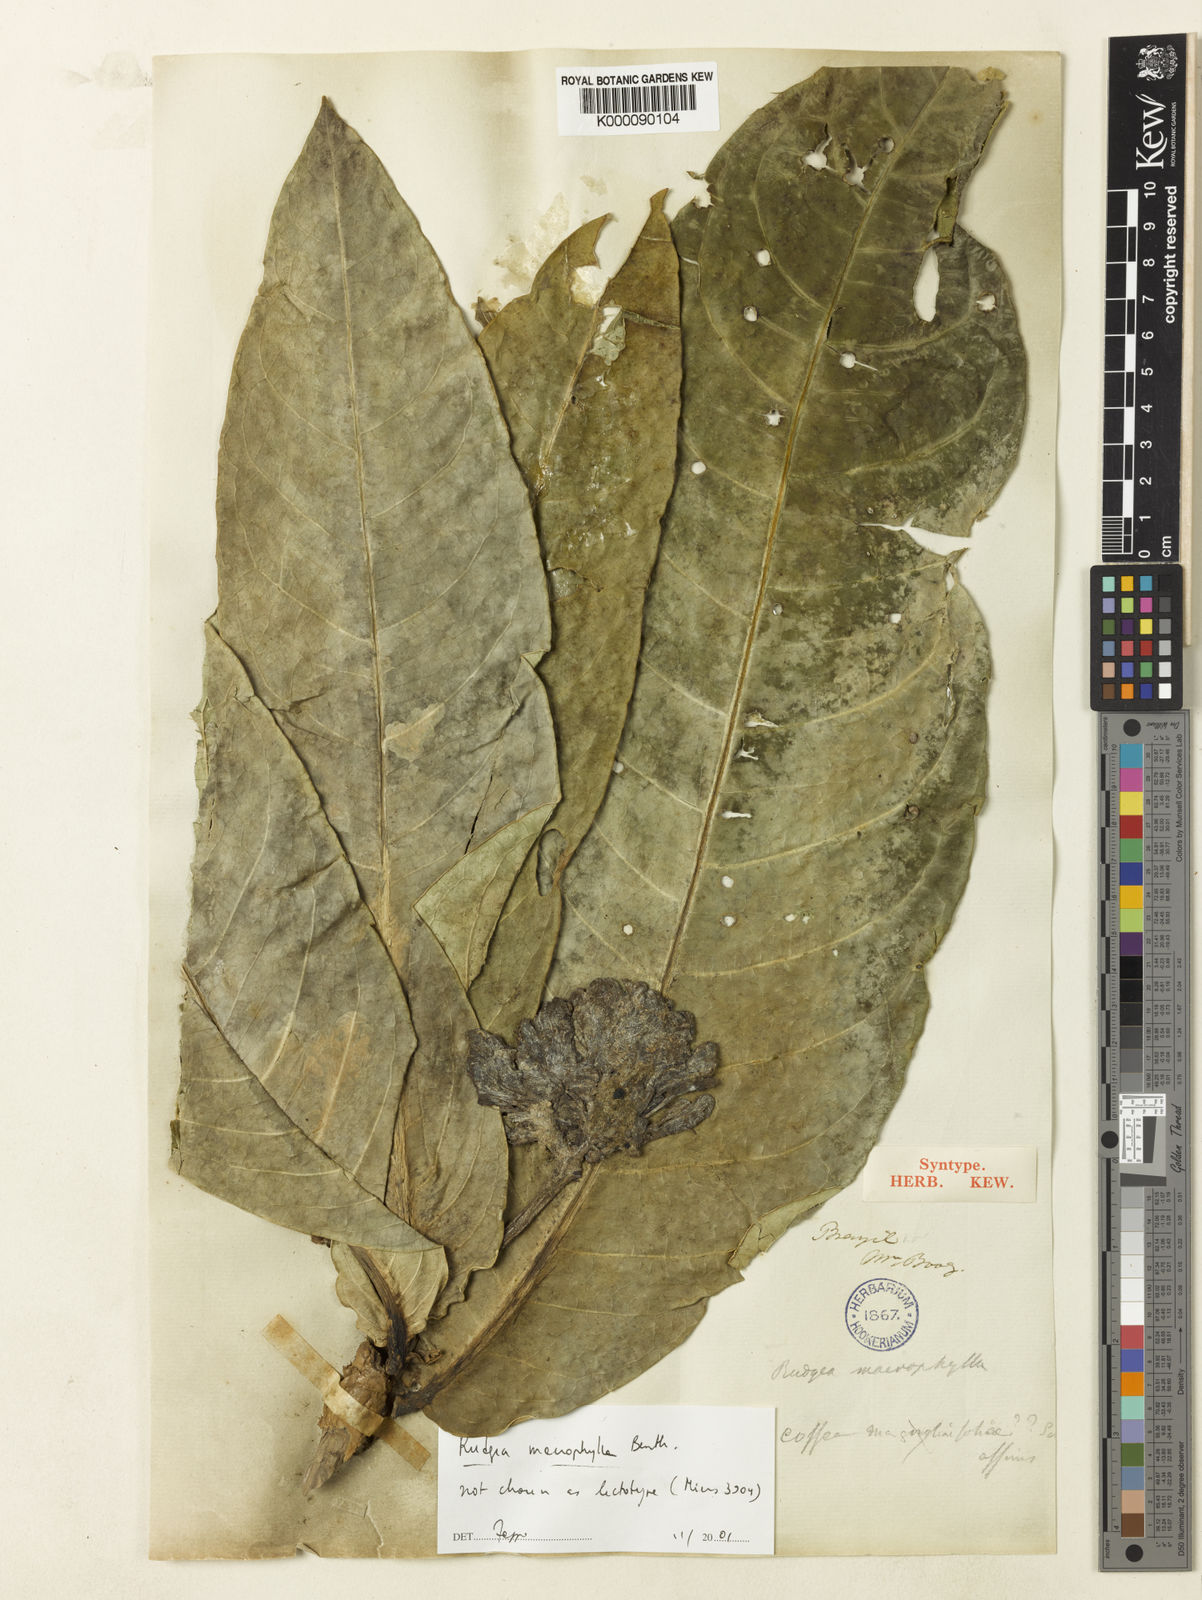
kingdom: Plantae
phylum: Tracheophyta
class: Magnoliopsida
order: Gentianales
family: Rubiaceae
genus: Rudgea
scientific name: Rudgea macrophylla
